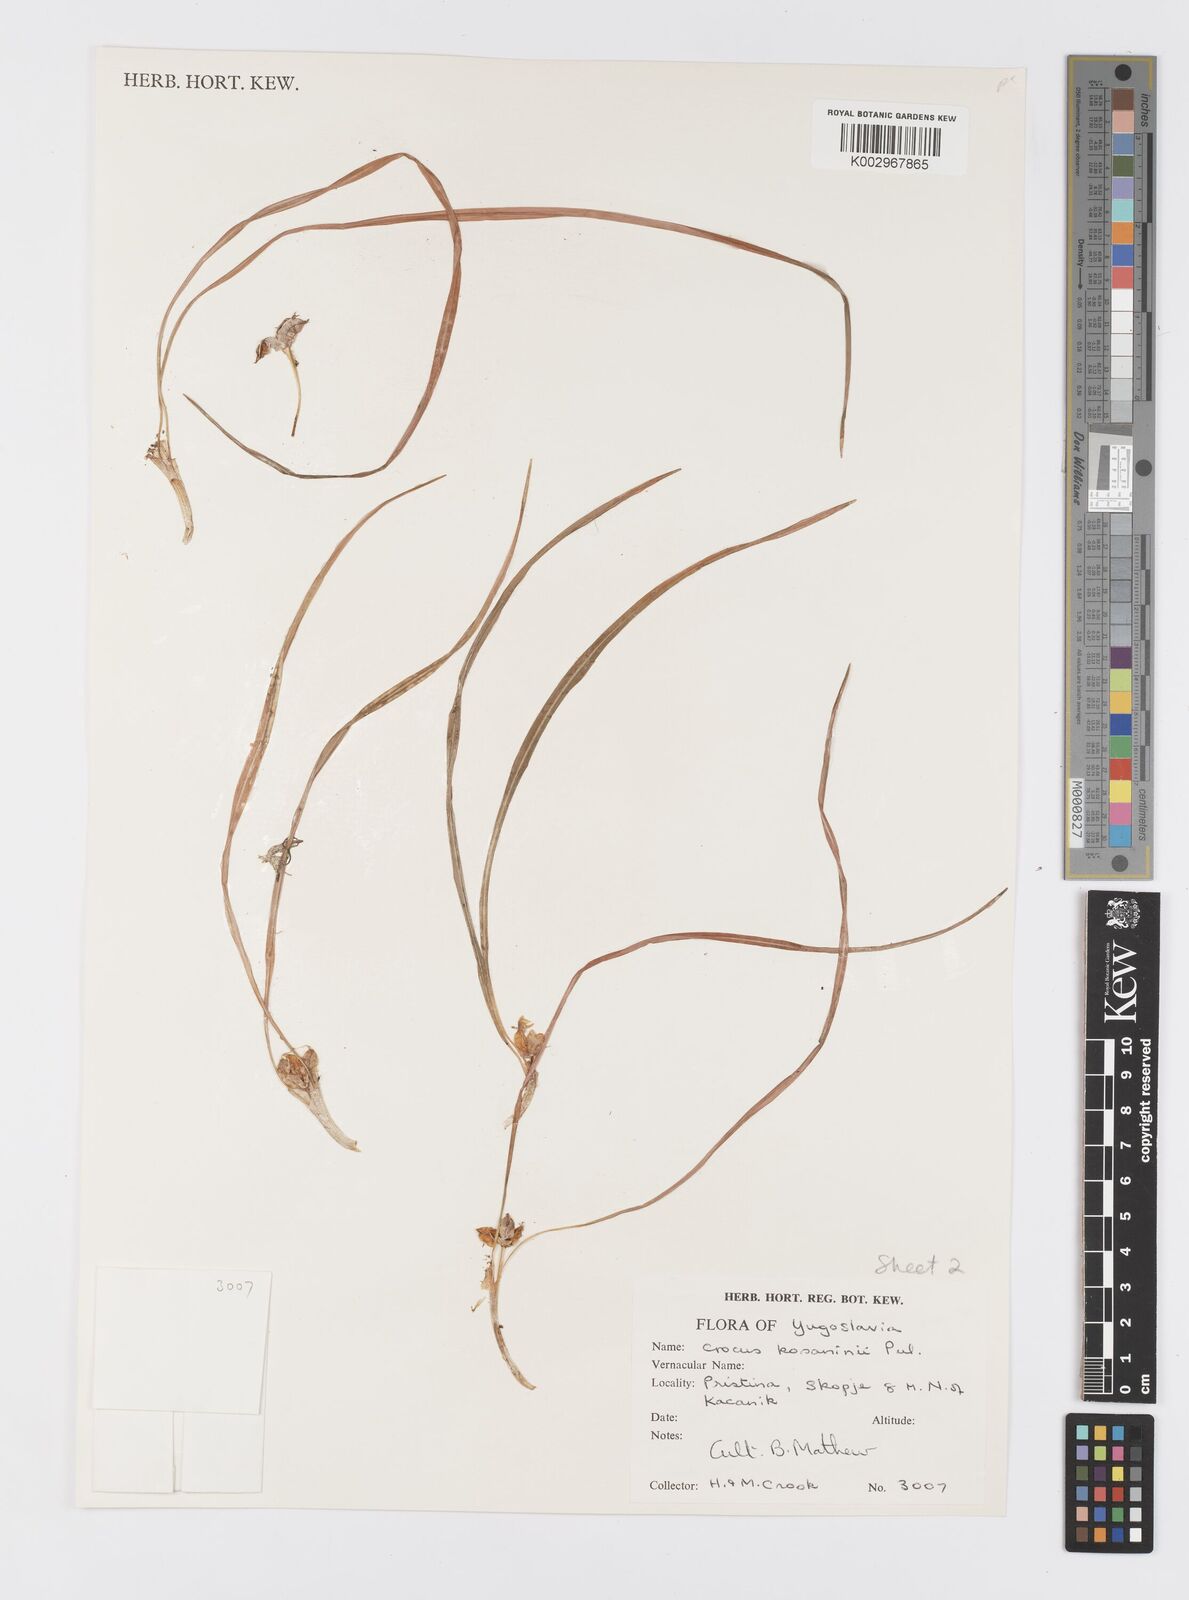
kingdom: Plantae
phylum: Tracheophyta
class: Liliopsida
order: Asparagales
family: Iridaceae
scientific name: Iridaceae
